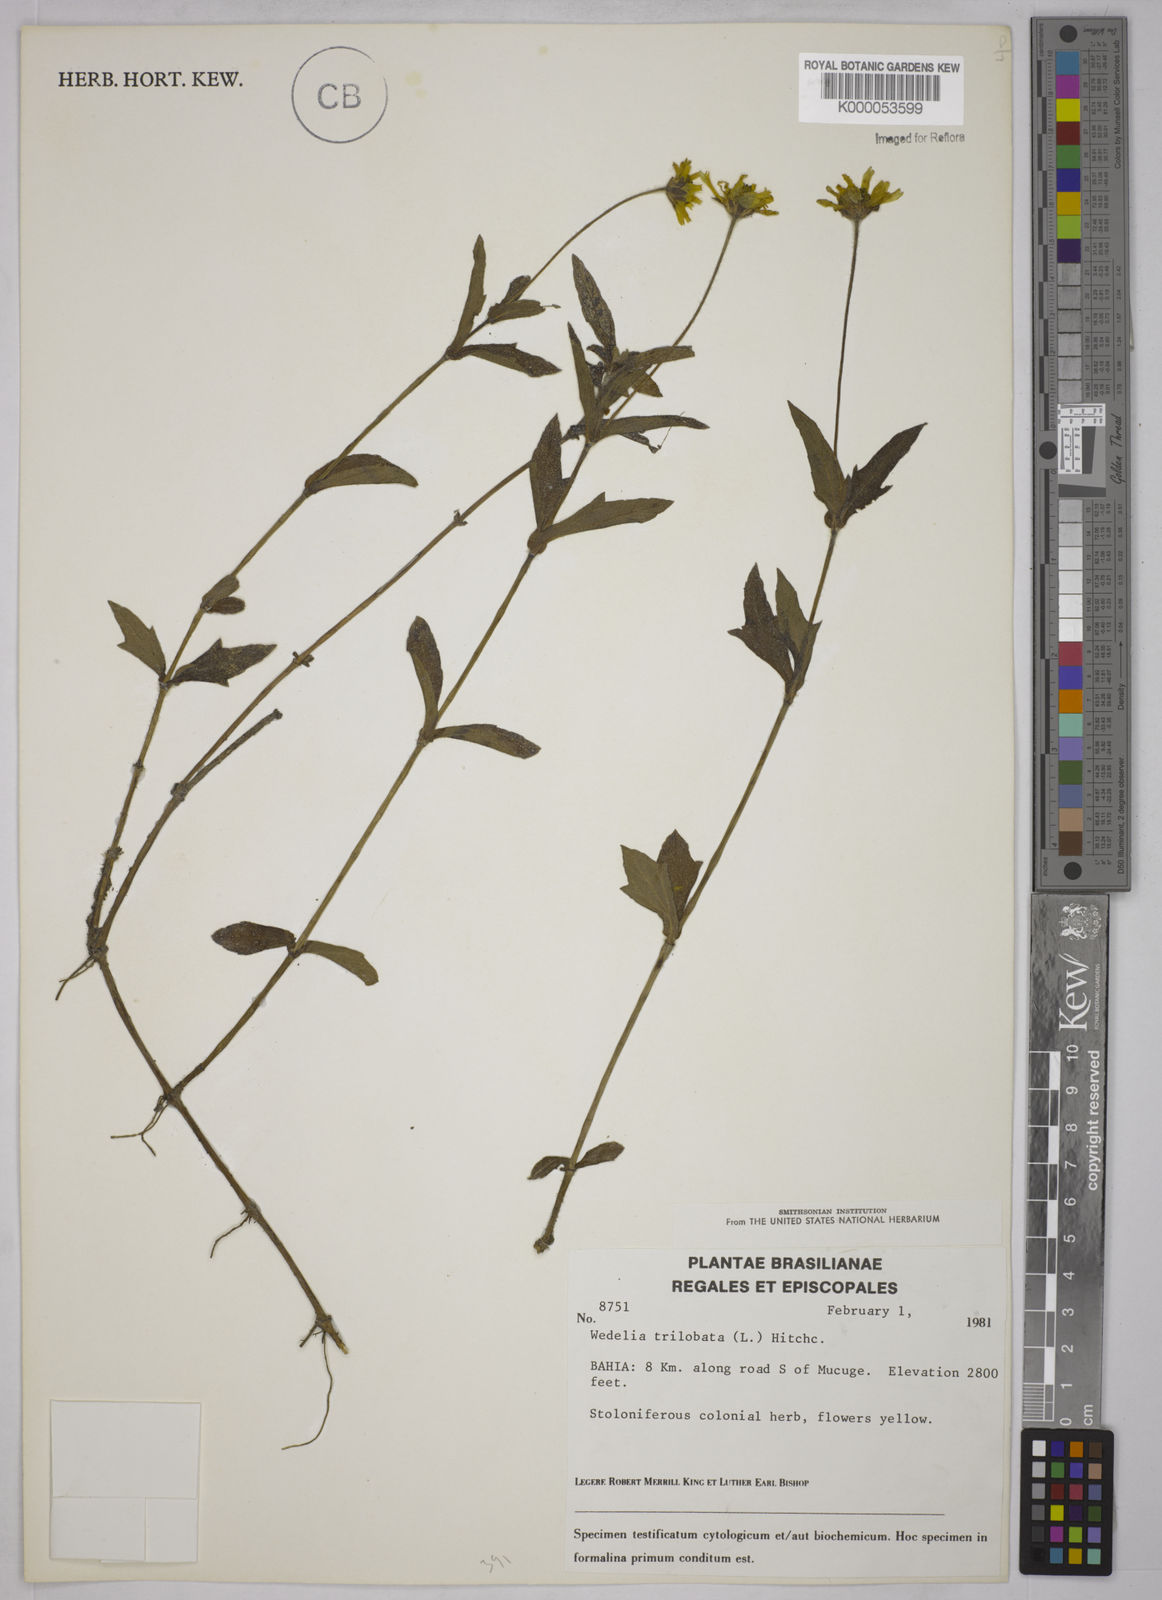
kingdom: Plantae
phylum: Tracheophyta
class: Magnoliopsida
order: Asterales
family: Asteraceae
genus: Sphagneticola
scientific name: Sphagneticola trilobata
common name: Bay biscayne creeping-oxeye
